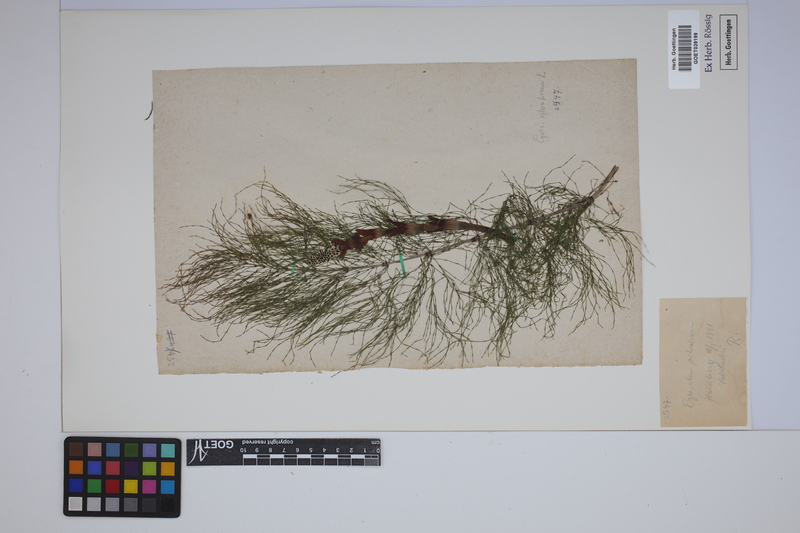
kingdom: Plantae
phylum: Tracheophyta
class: Polypodiopsida
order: Equisetales
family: Equisetaceae
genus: Equisetum
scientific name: Equisetum sylvaticum
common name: Wood horsetail
